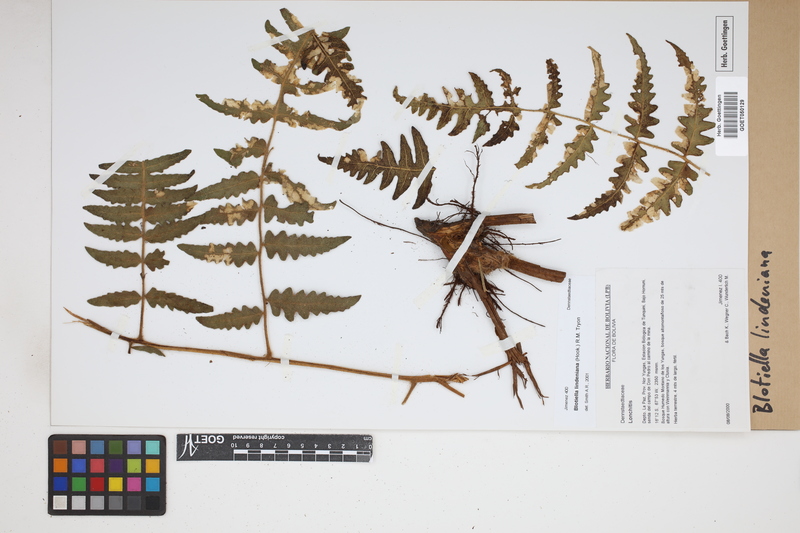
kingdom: Plantae
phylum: Tracheophyta
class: Polypodiopsida
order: Polypodiales
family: Dennstaedtiaceae
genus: Blotiella
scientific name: Blotiella aurita
